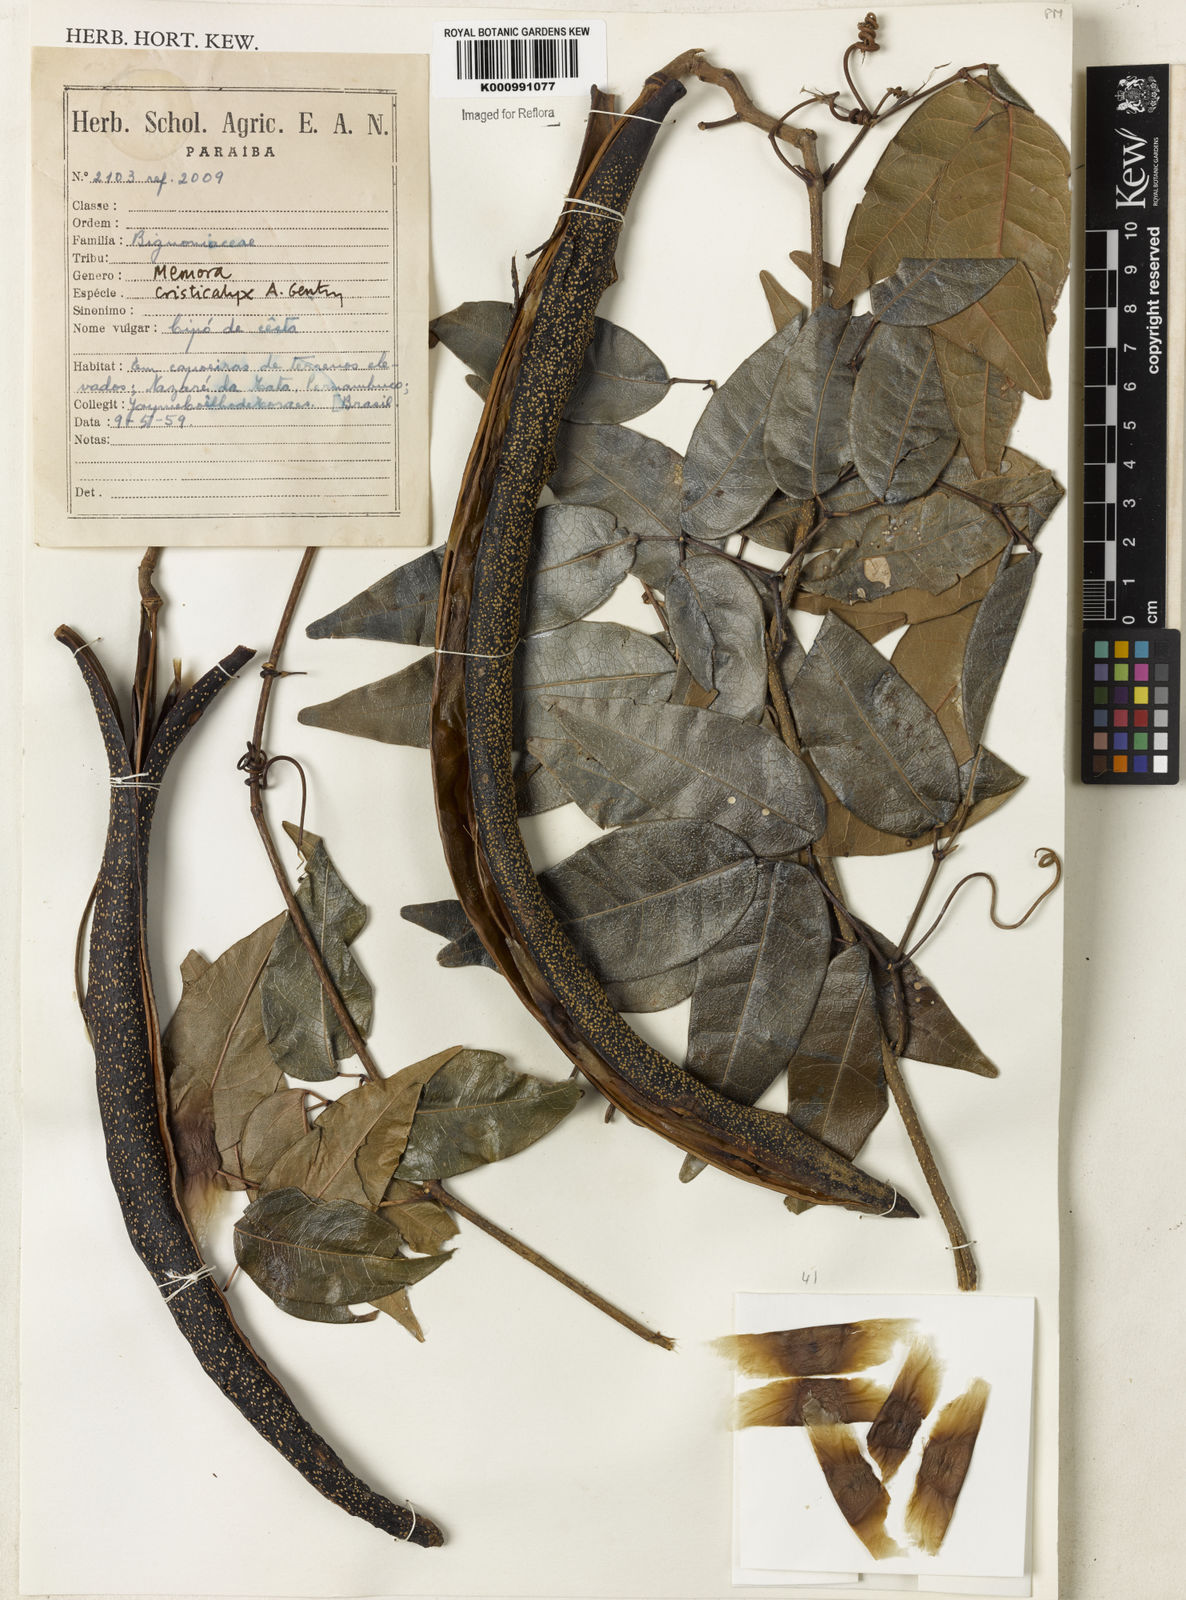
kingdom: Plantae
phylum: Tracheophyta
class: Magnoliopsida
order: Lamiales
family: Bignoniaceae
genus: Adenocalymma
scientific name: Adenocalymma cristicalyx
